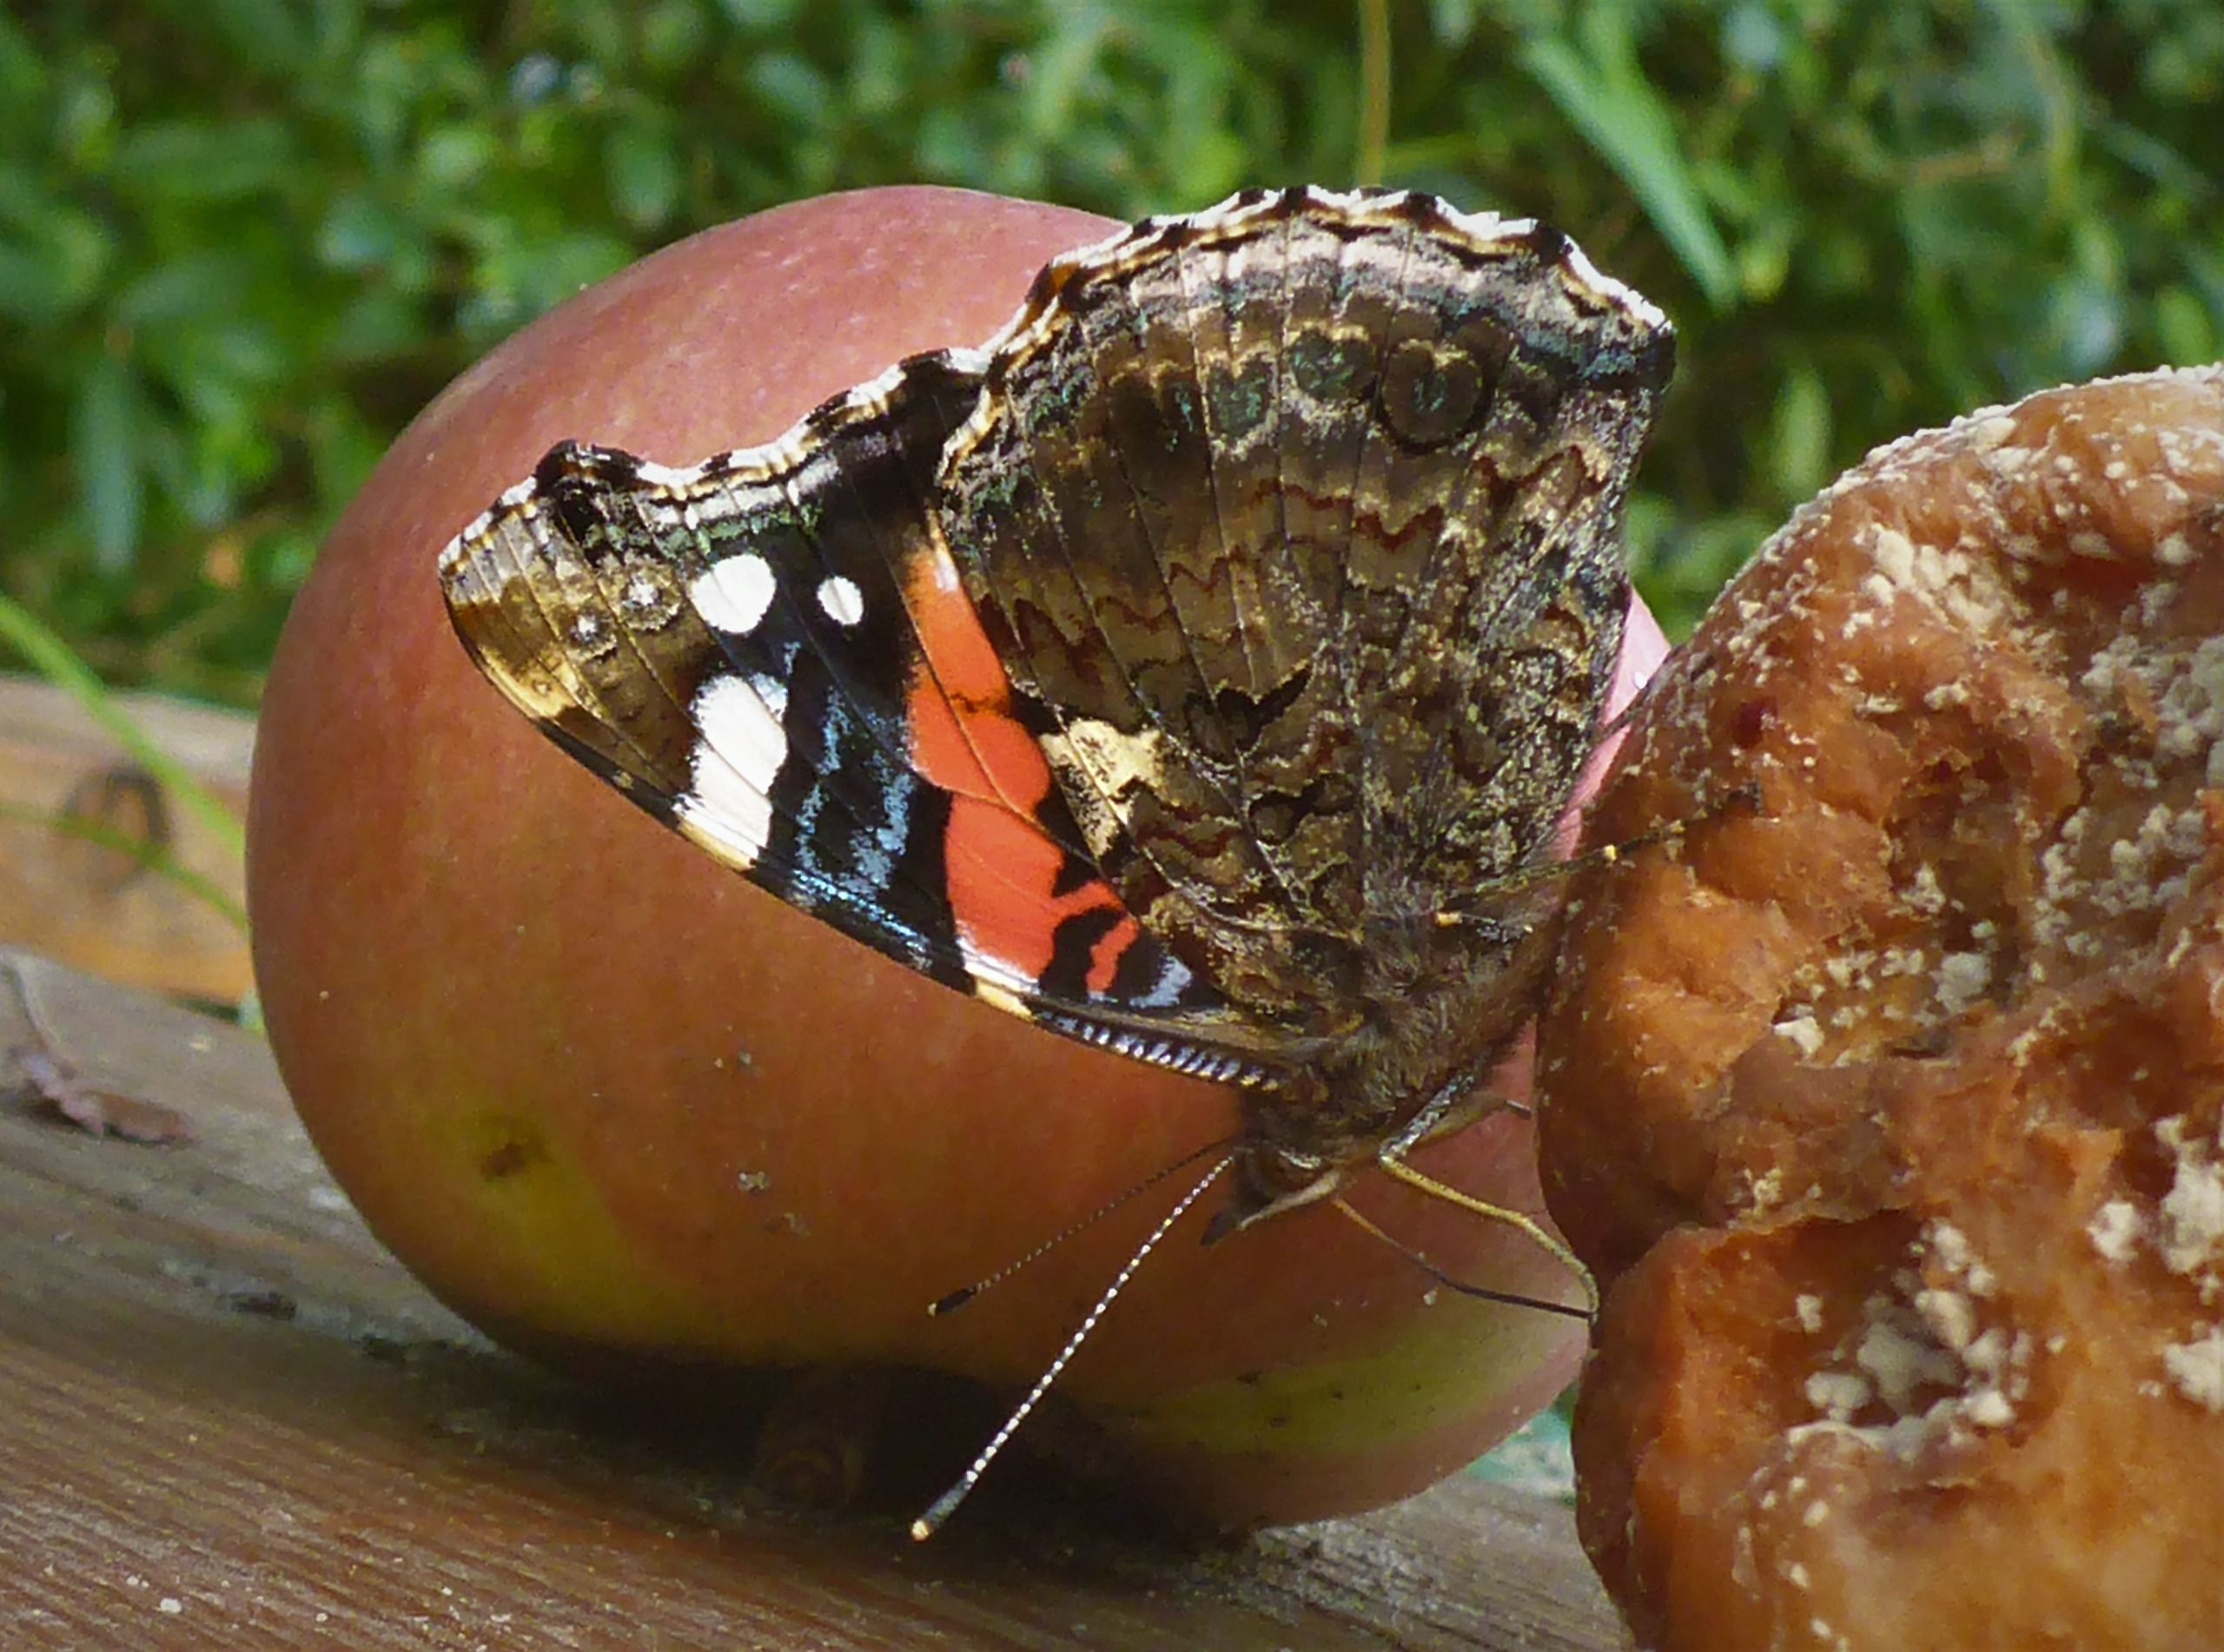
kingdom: Animalia
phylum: Arthropoda
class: Insecta
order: Lepidoptera
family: Nymphalidae
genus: Vanessa
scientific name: Vanessa atalanta
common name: Admiral
